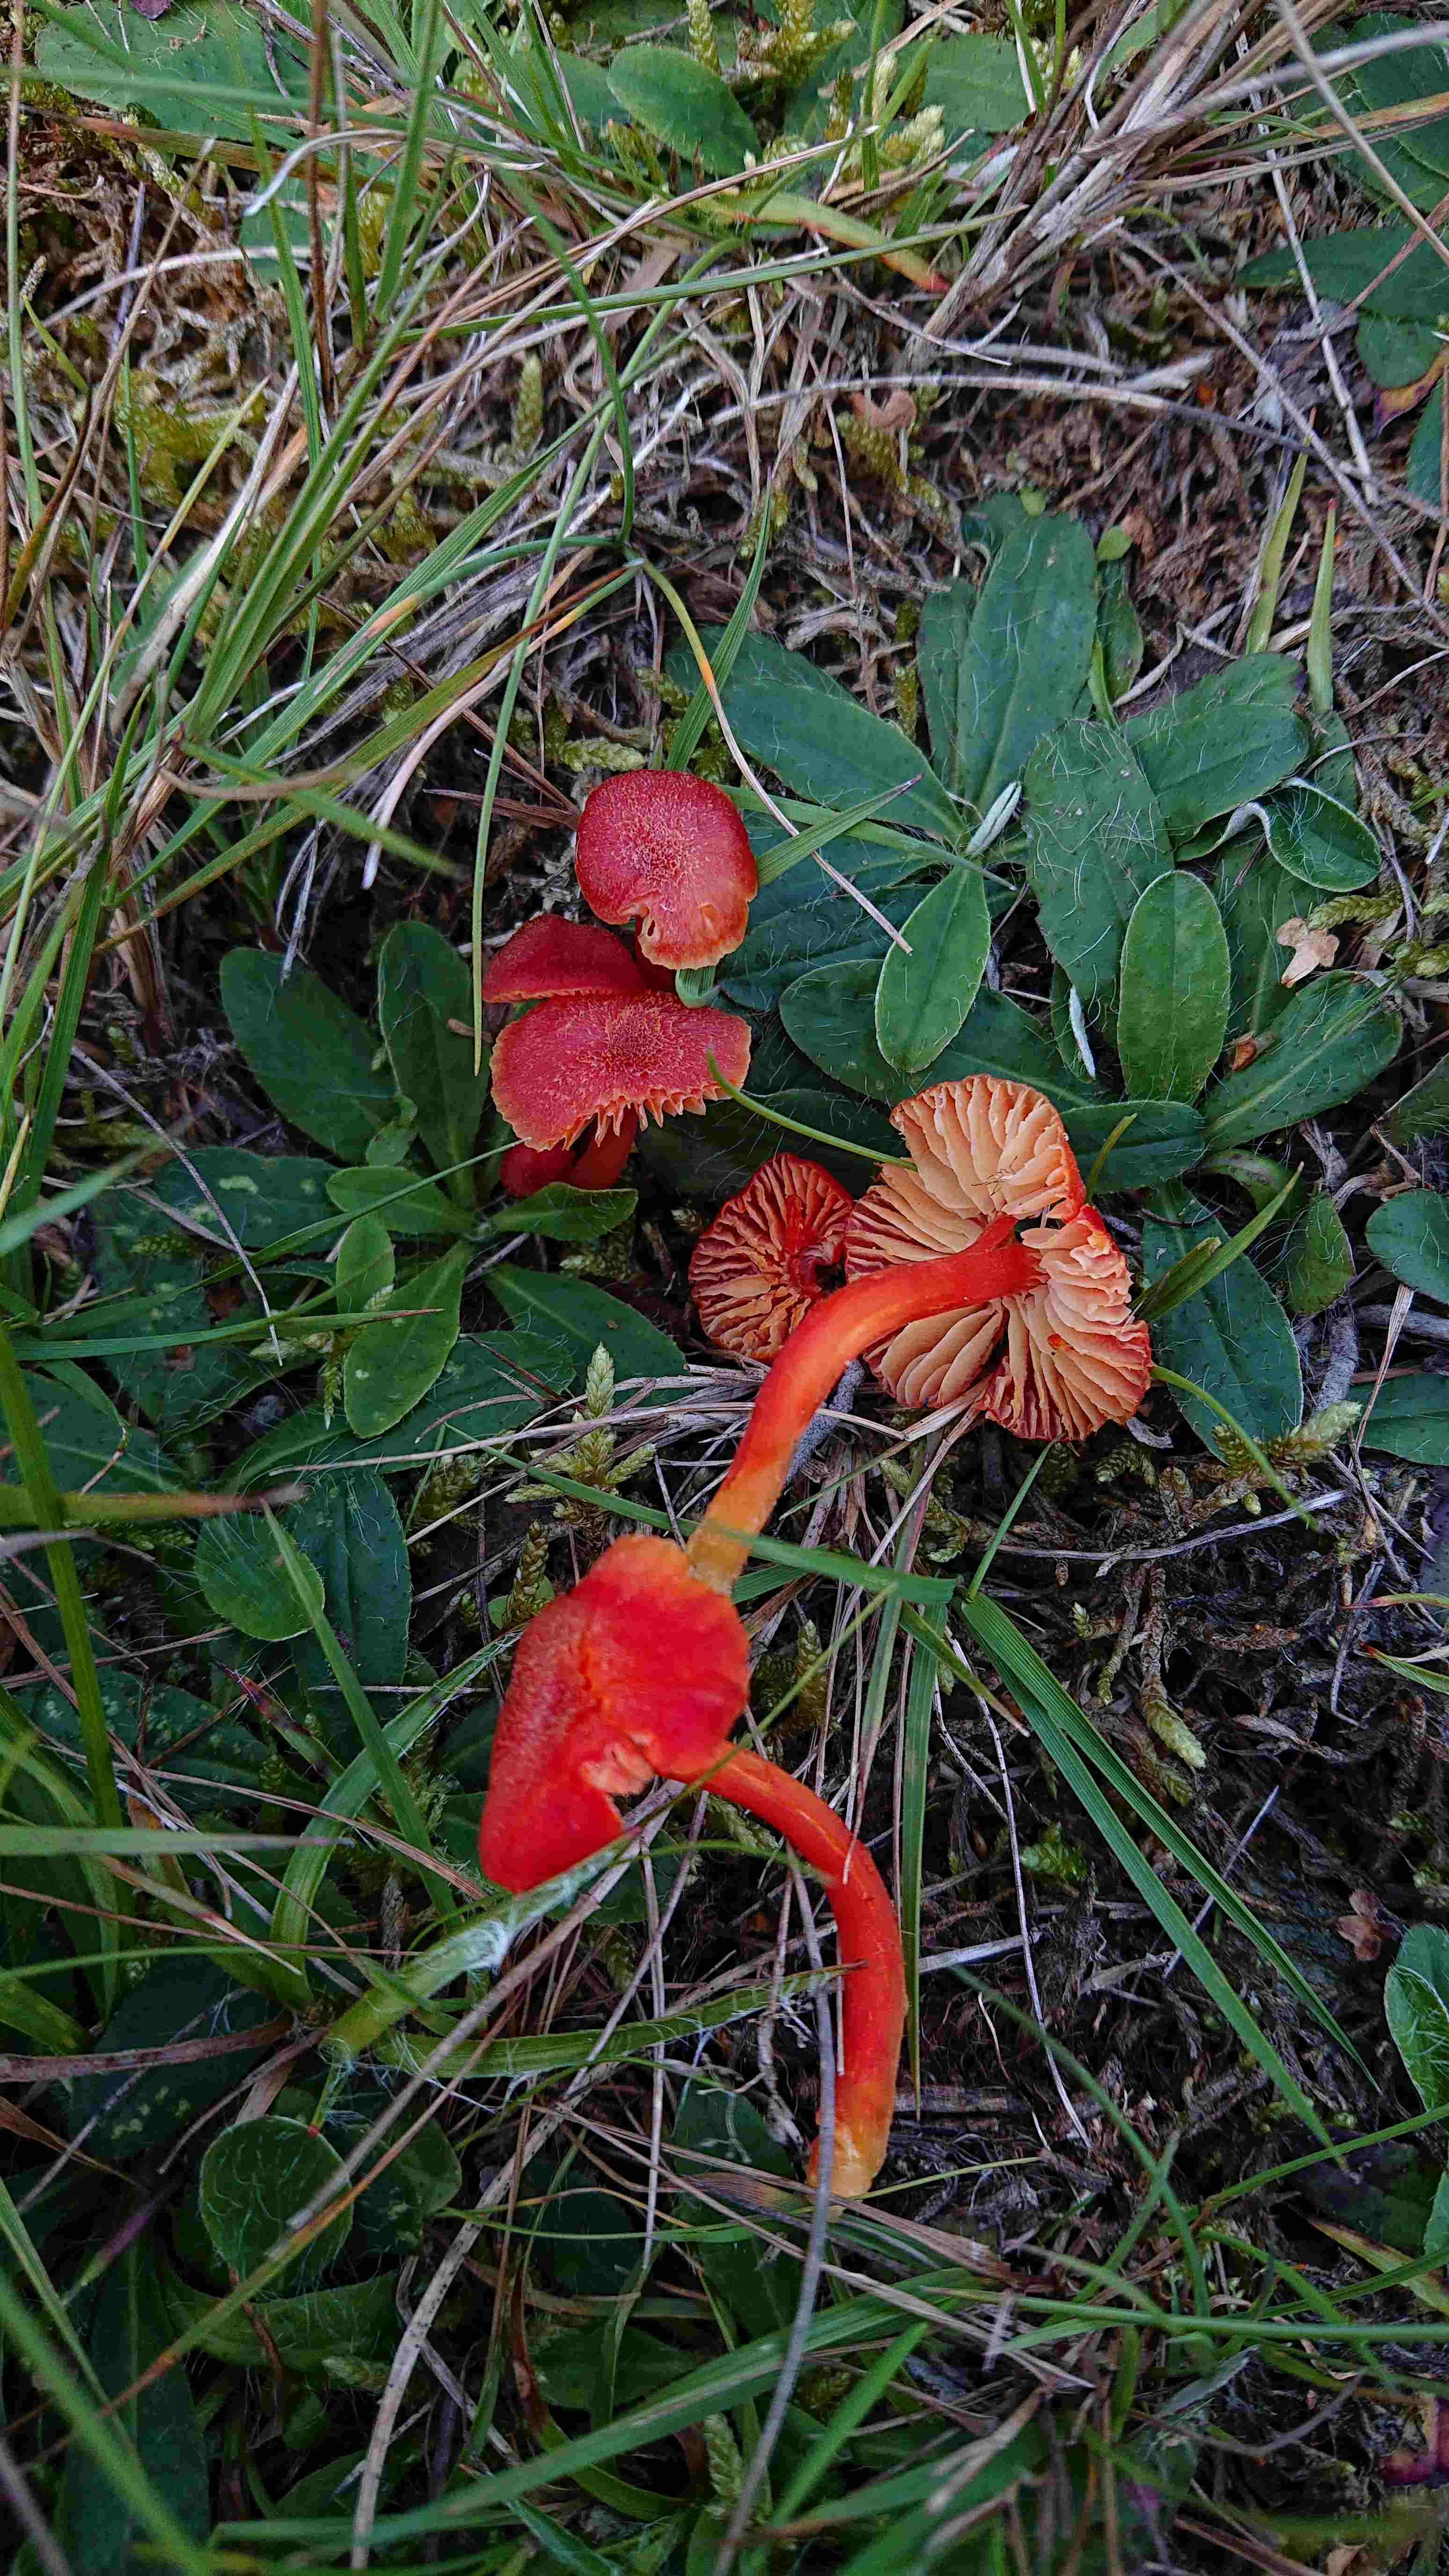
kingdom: Fungi
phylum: Basidiomycota
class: Agaricomycetes
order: Agaricales
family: Hygrophoraceae
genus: Hygrocybe
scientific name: Hygrocybe helobia
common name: hvidløgs-vokshat
